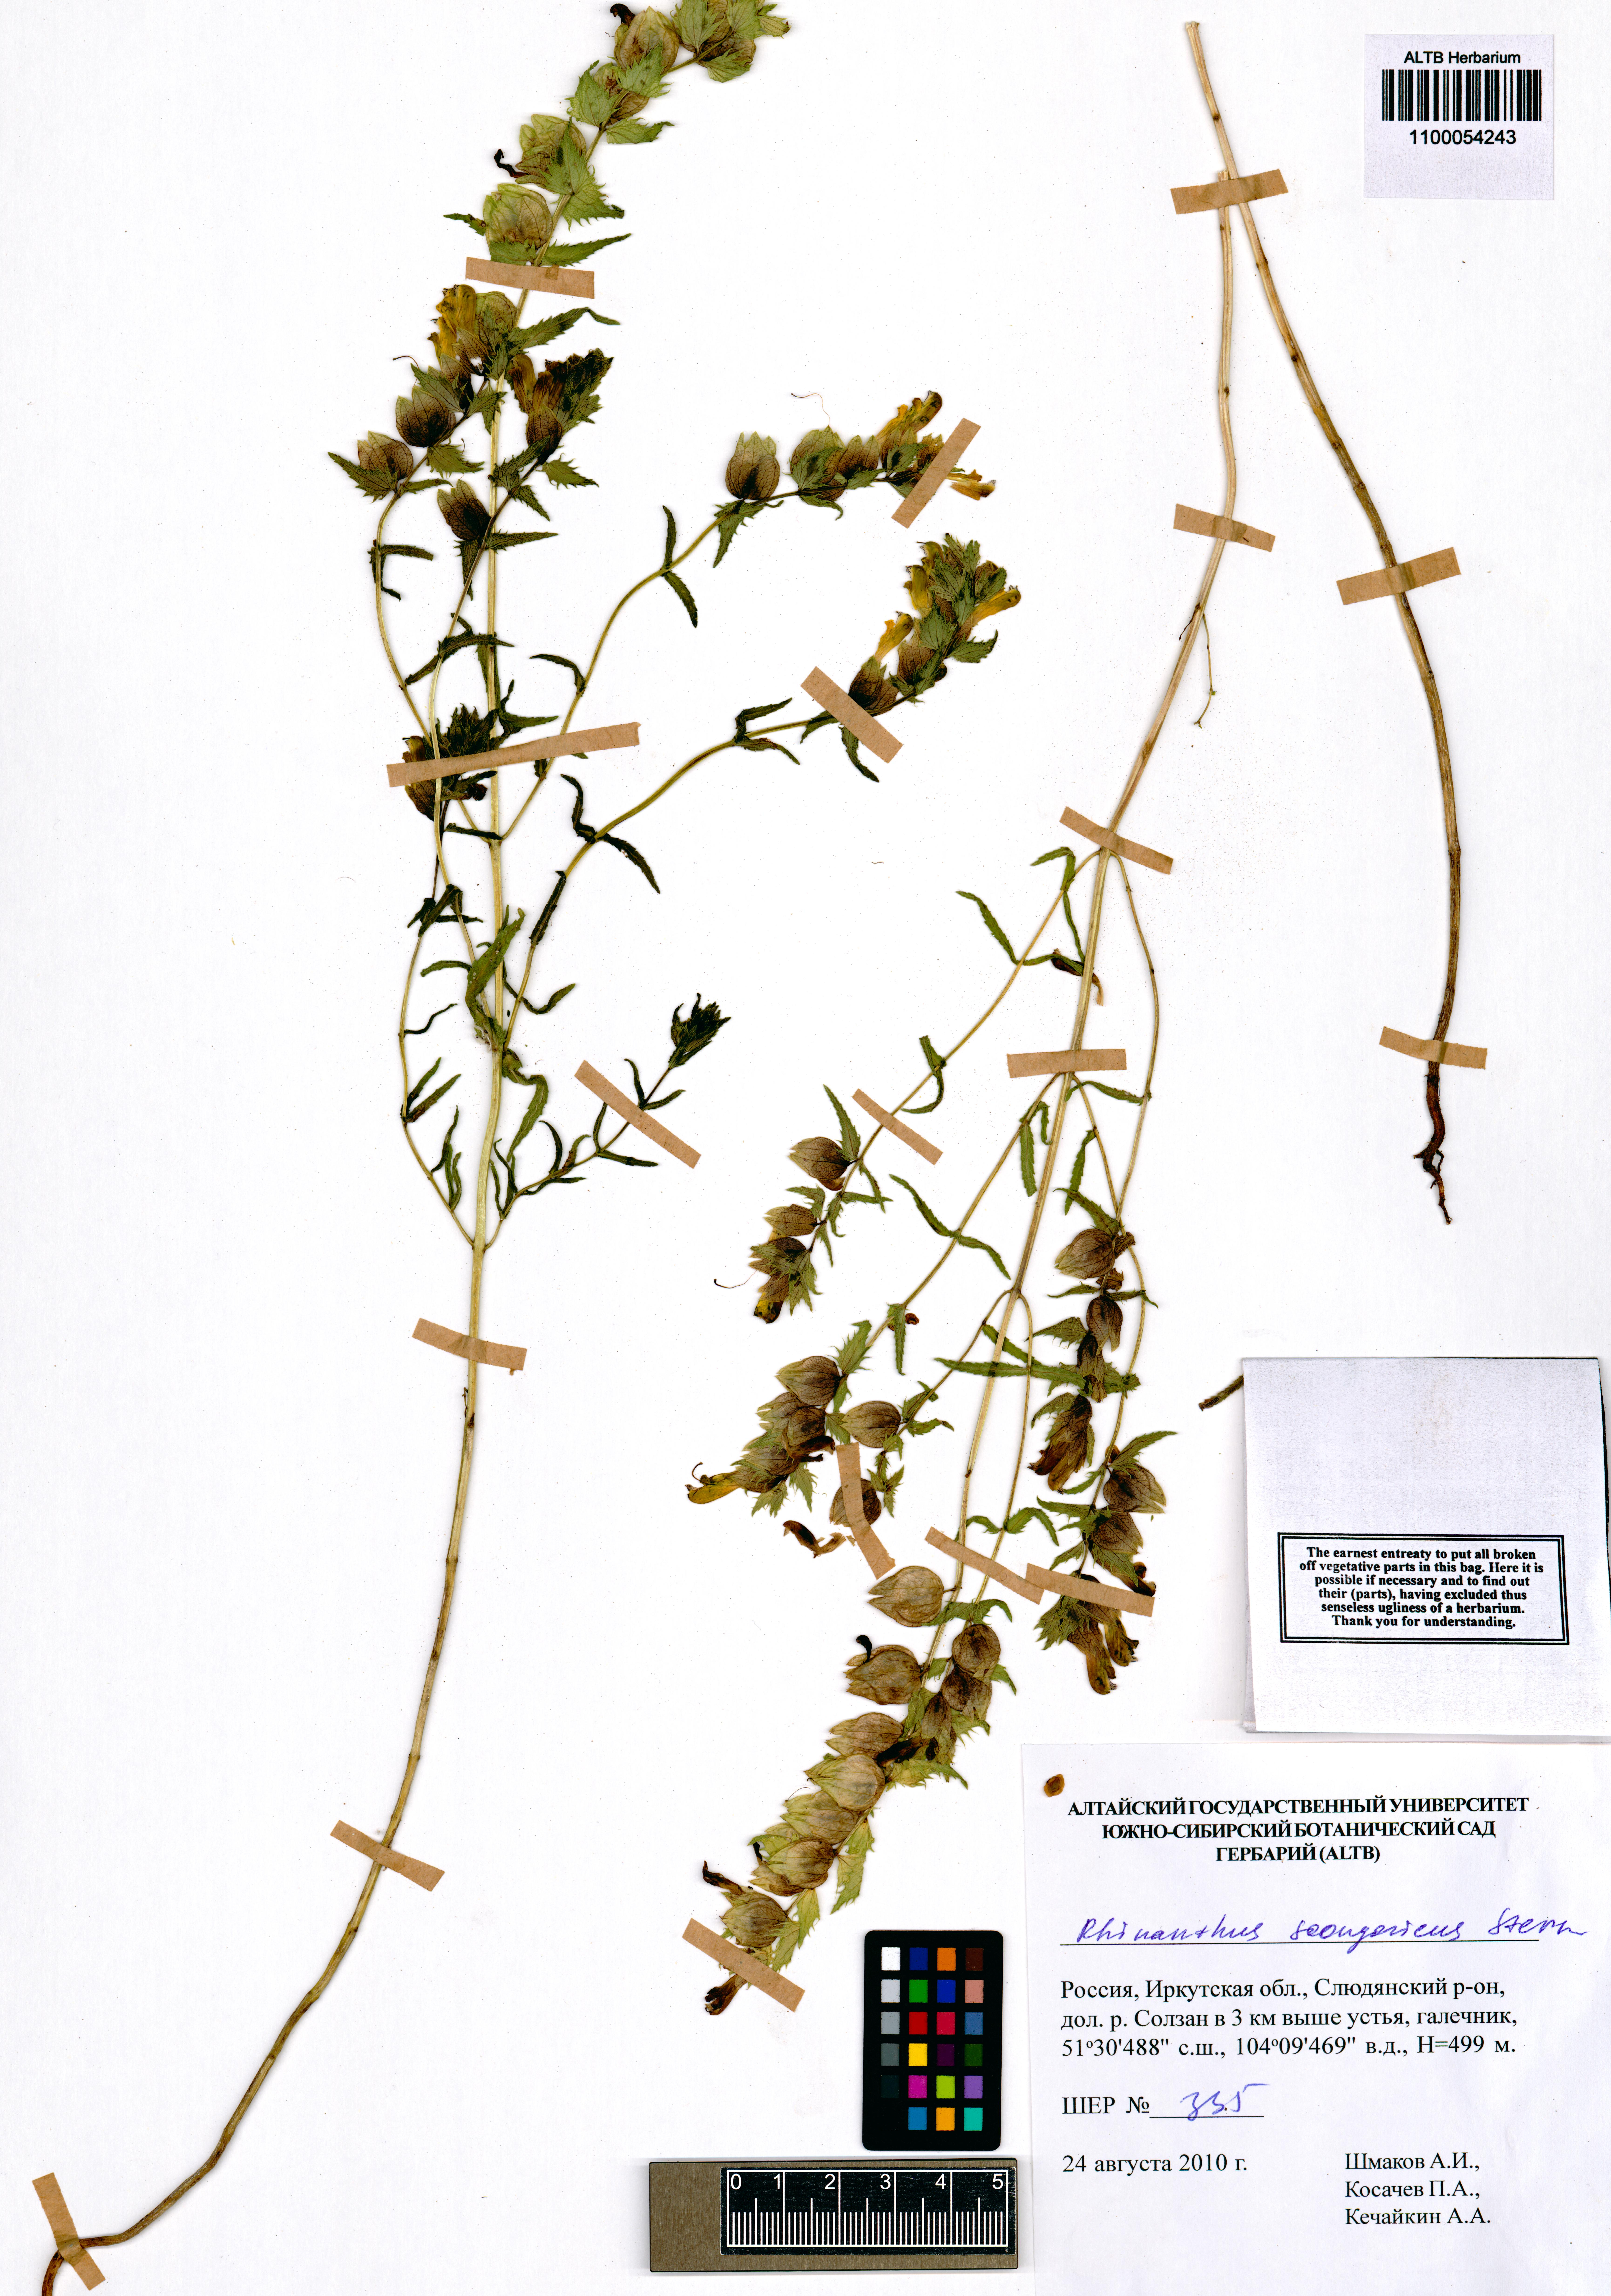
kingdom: Plantae
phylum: Tracheophyta
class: Magnoliopsida
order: Lamiales
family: Orobanchaceae
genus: Rhinanthus
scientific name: Rhinanthus songaricus
